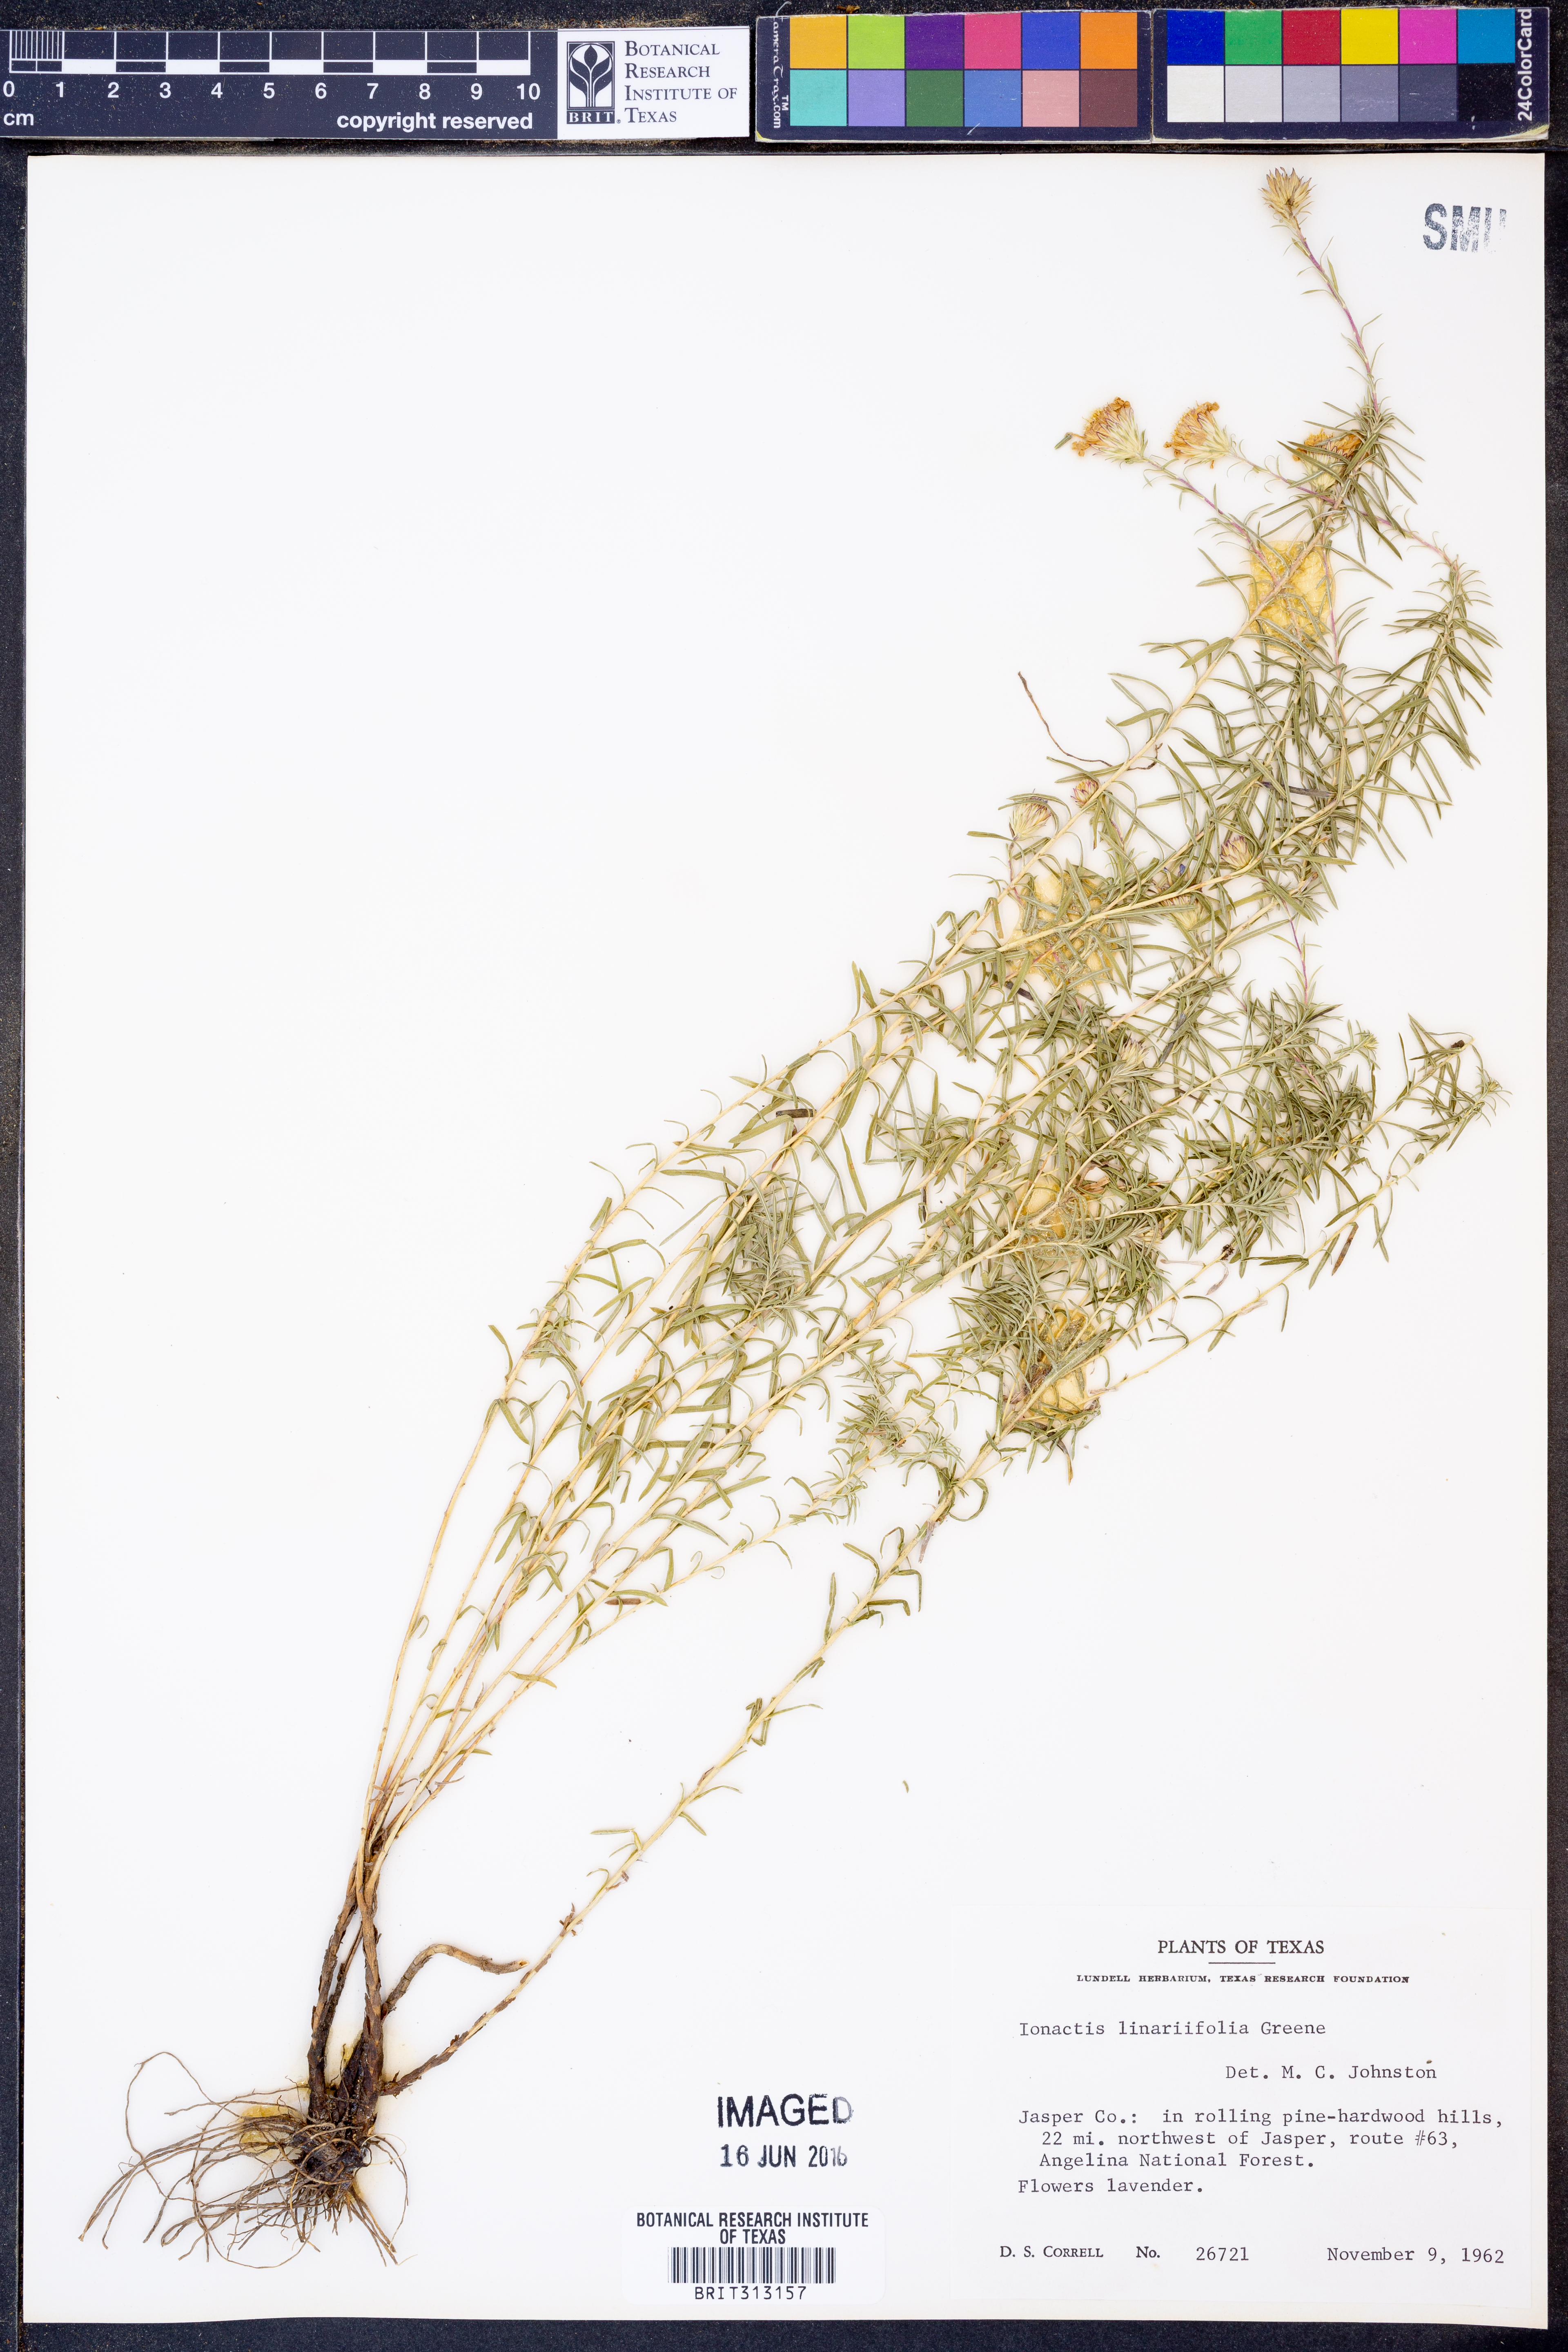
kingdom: Plantae
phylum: Tracheophyta
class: Magnoliopsida
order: Asterales
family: Asteraceae
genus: Ionactis
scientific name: Ionactis linariifolia
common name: Flax-leaf aster
